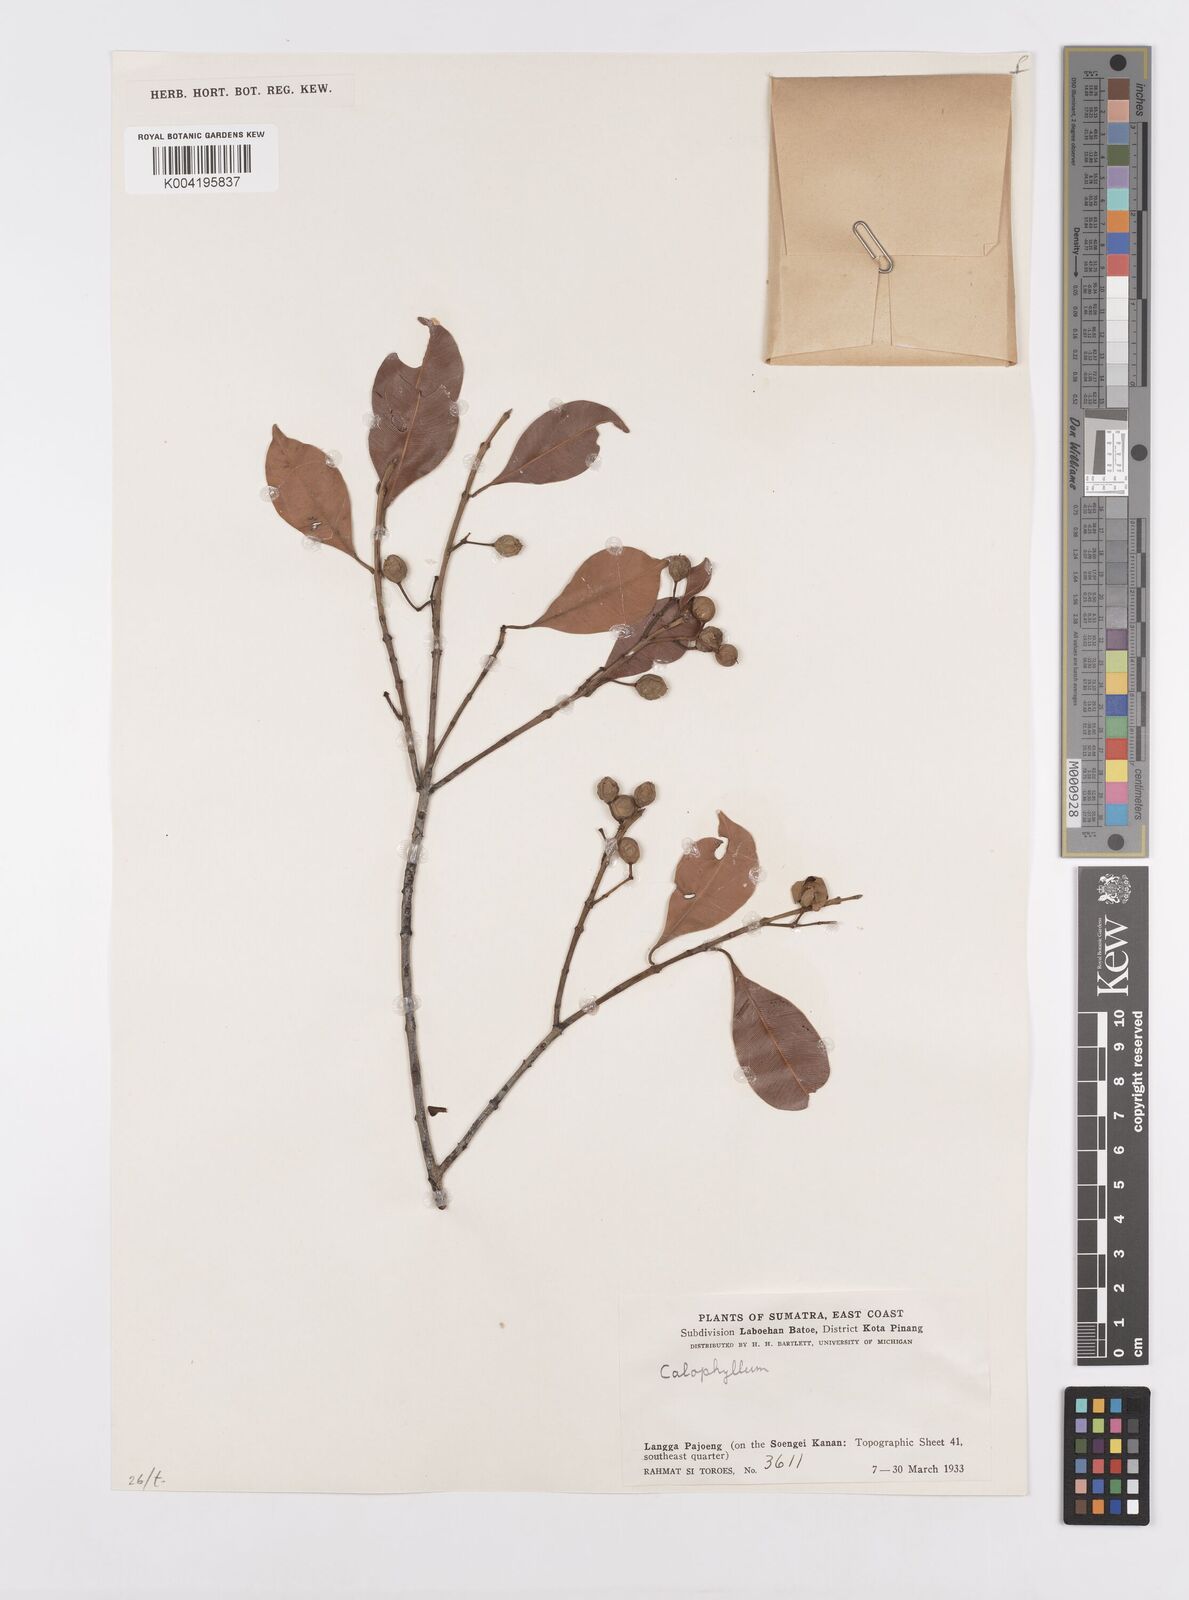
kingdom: Plantae
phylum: Tracheophyta
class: Magnoliopsida
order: Malpighiales
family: Calophyllaceae
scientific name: Calophyllaceae
